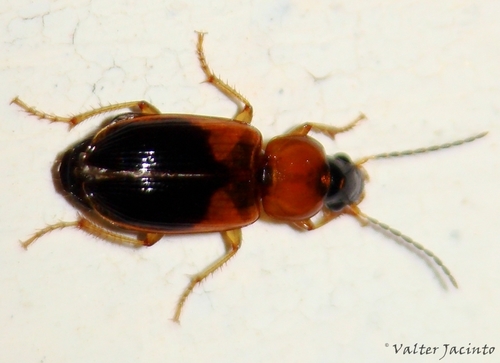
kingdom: Animalia
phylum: Arthropoda
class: Insecta
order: Coleoptera
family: Carabidae
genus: Stenolophus
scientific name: Stenolophus teutonus
